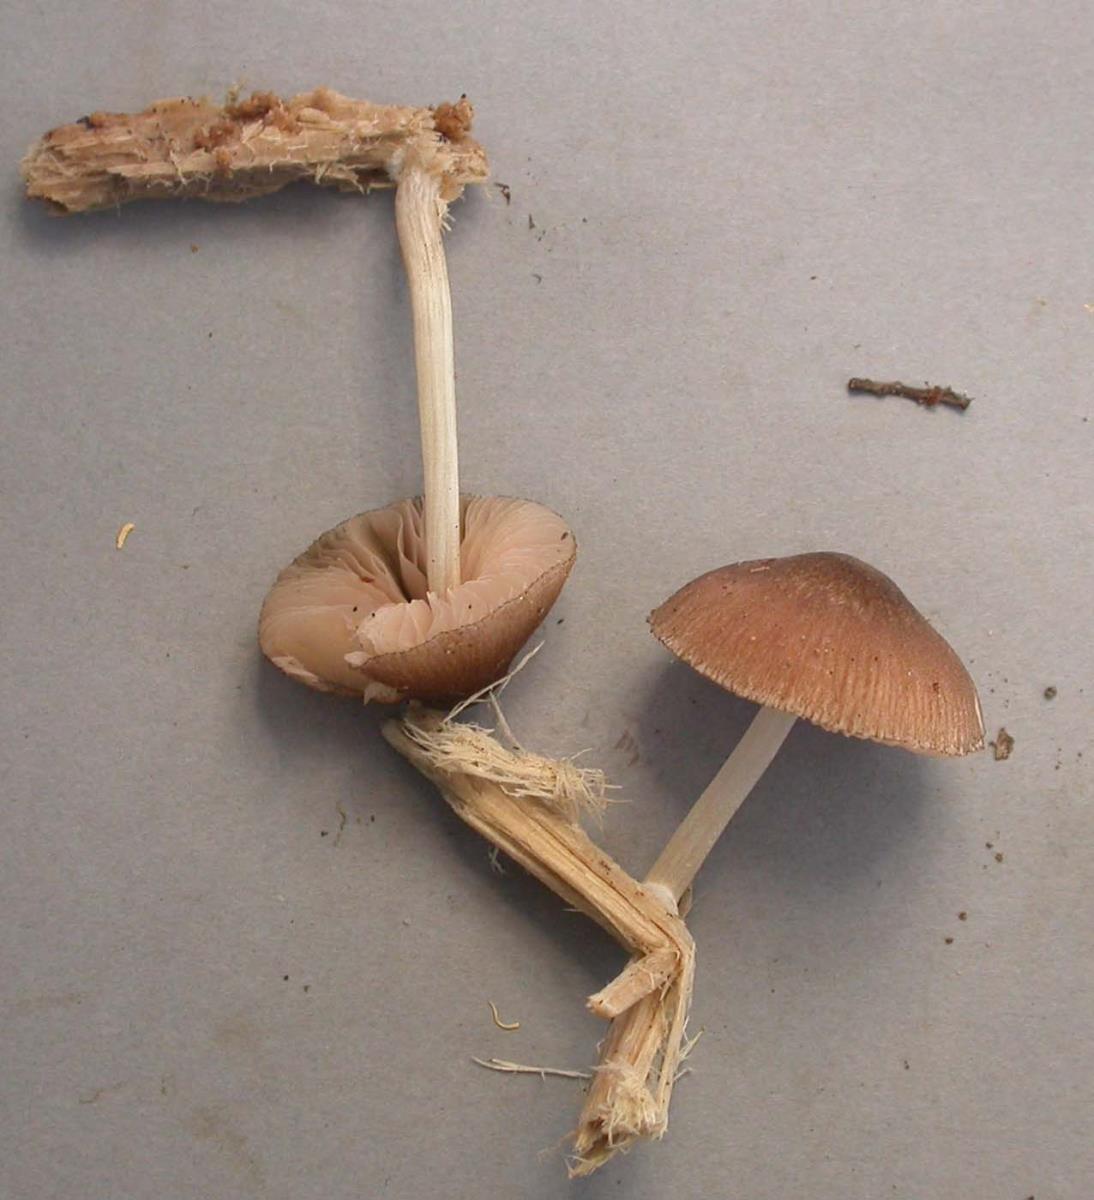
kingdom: Fungi
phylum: Basidiomycota
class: Agaricomycetes
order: Agaricales
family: Pluteaceae
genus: Pluteus
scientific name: Pluteus readiarum
